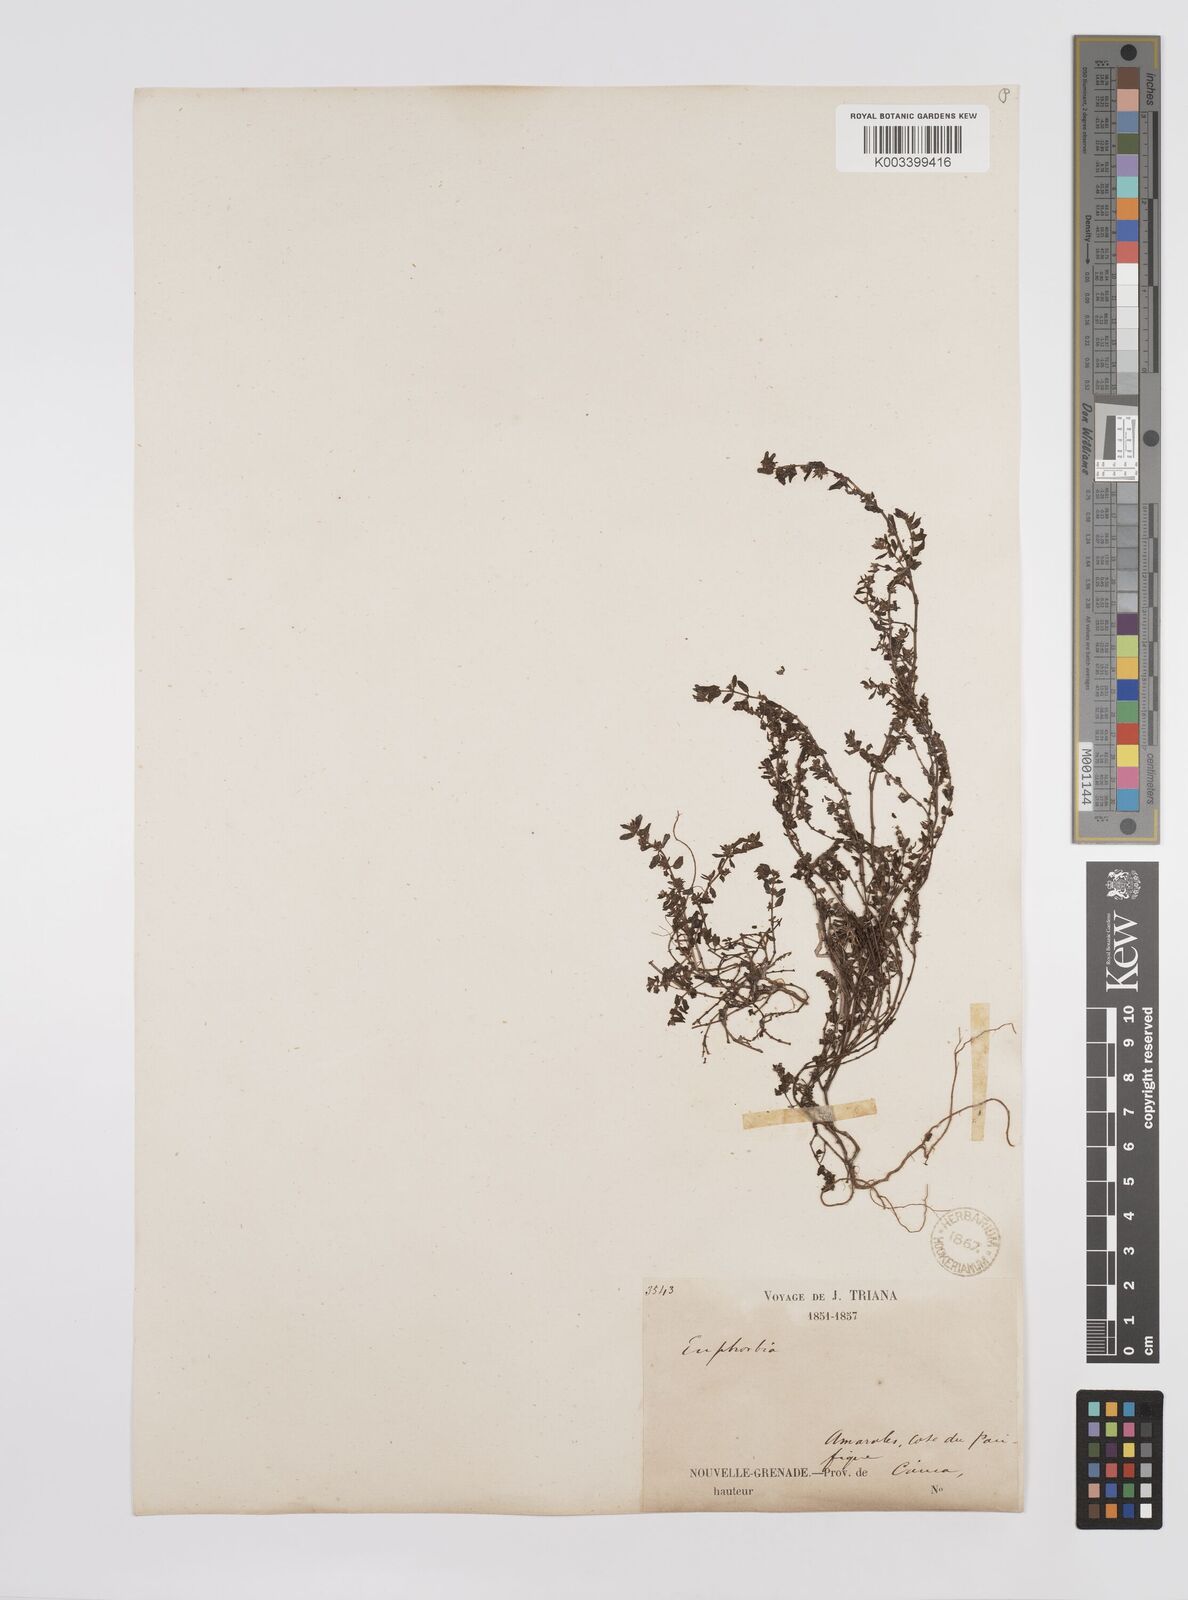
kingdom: Plantae
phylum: Tracheophyta
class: Magnoliopsida
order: Malpighiales
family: Euphorbiaceae
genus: Euphorbia
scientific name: Euphorbia
